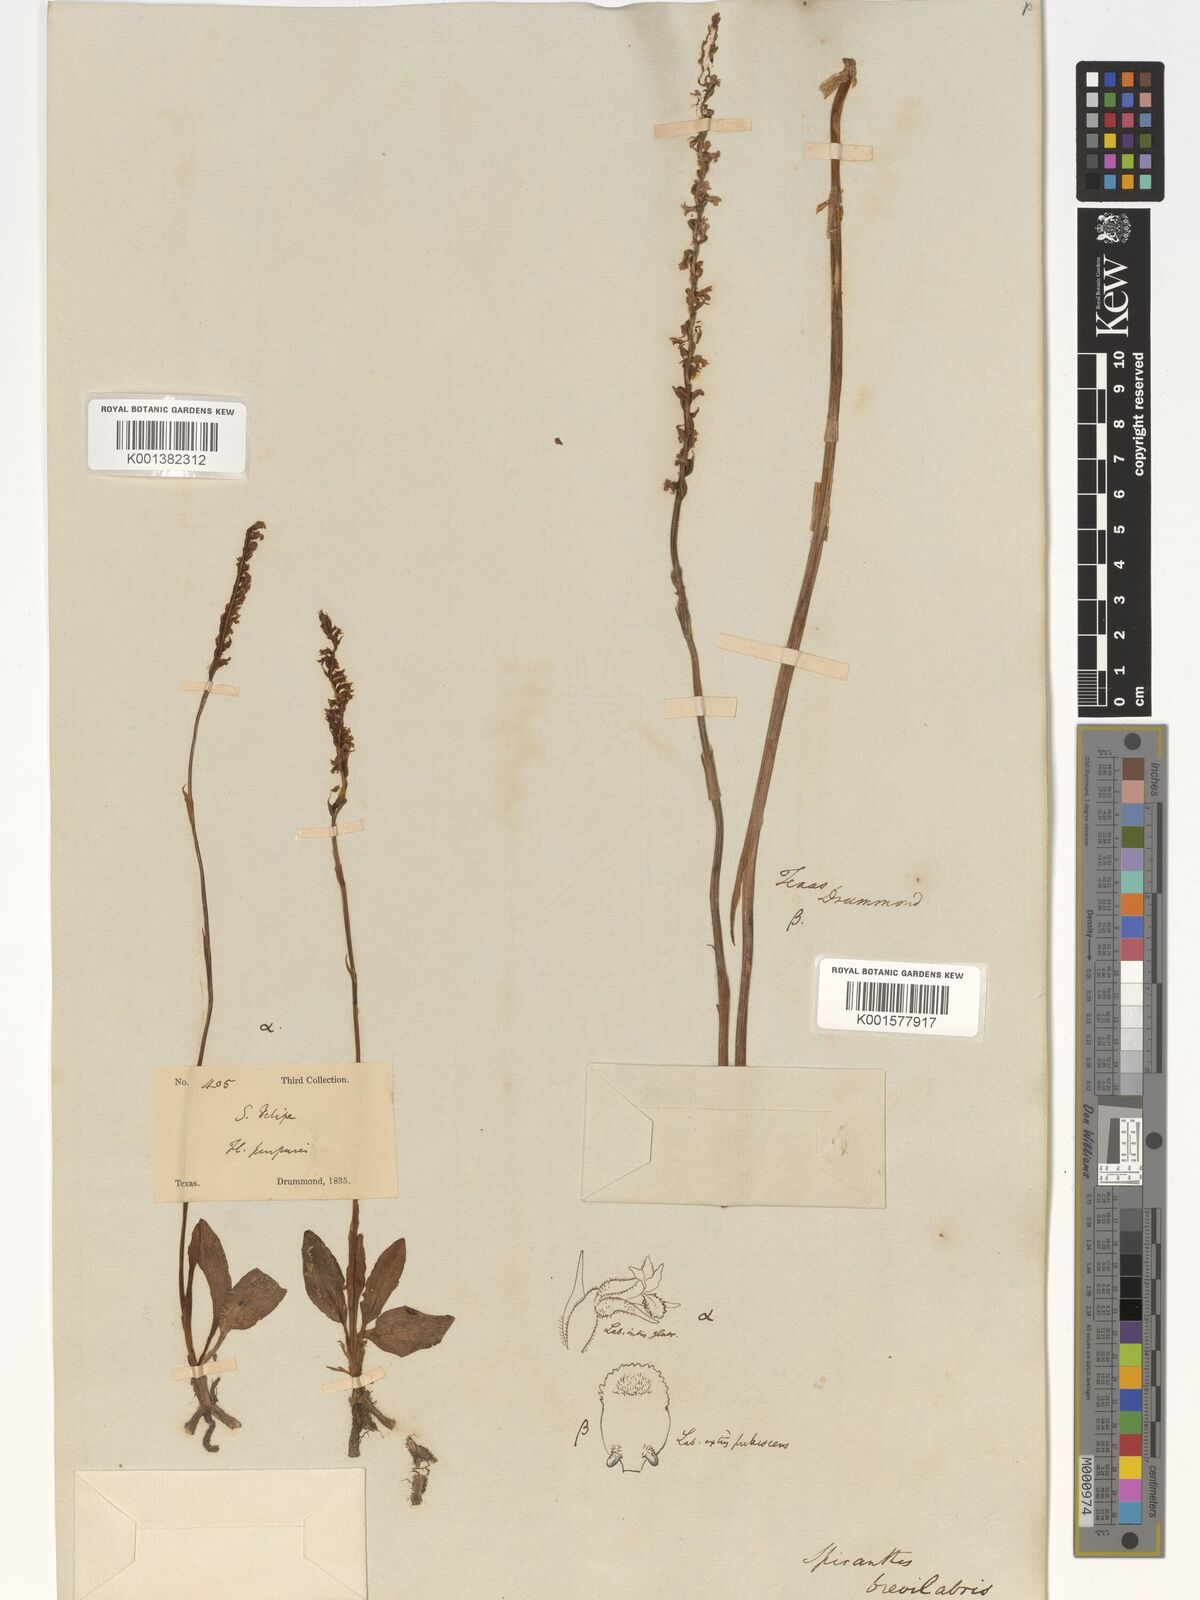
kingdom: Plantae
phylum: Tracheophyta
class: Liliopsida
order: Asparagales
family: Orchidaceae
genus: Spiranthes
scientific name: Spiranthes brevilabris
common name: Texas ladies'-tresses
